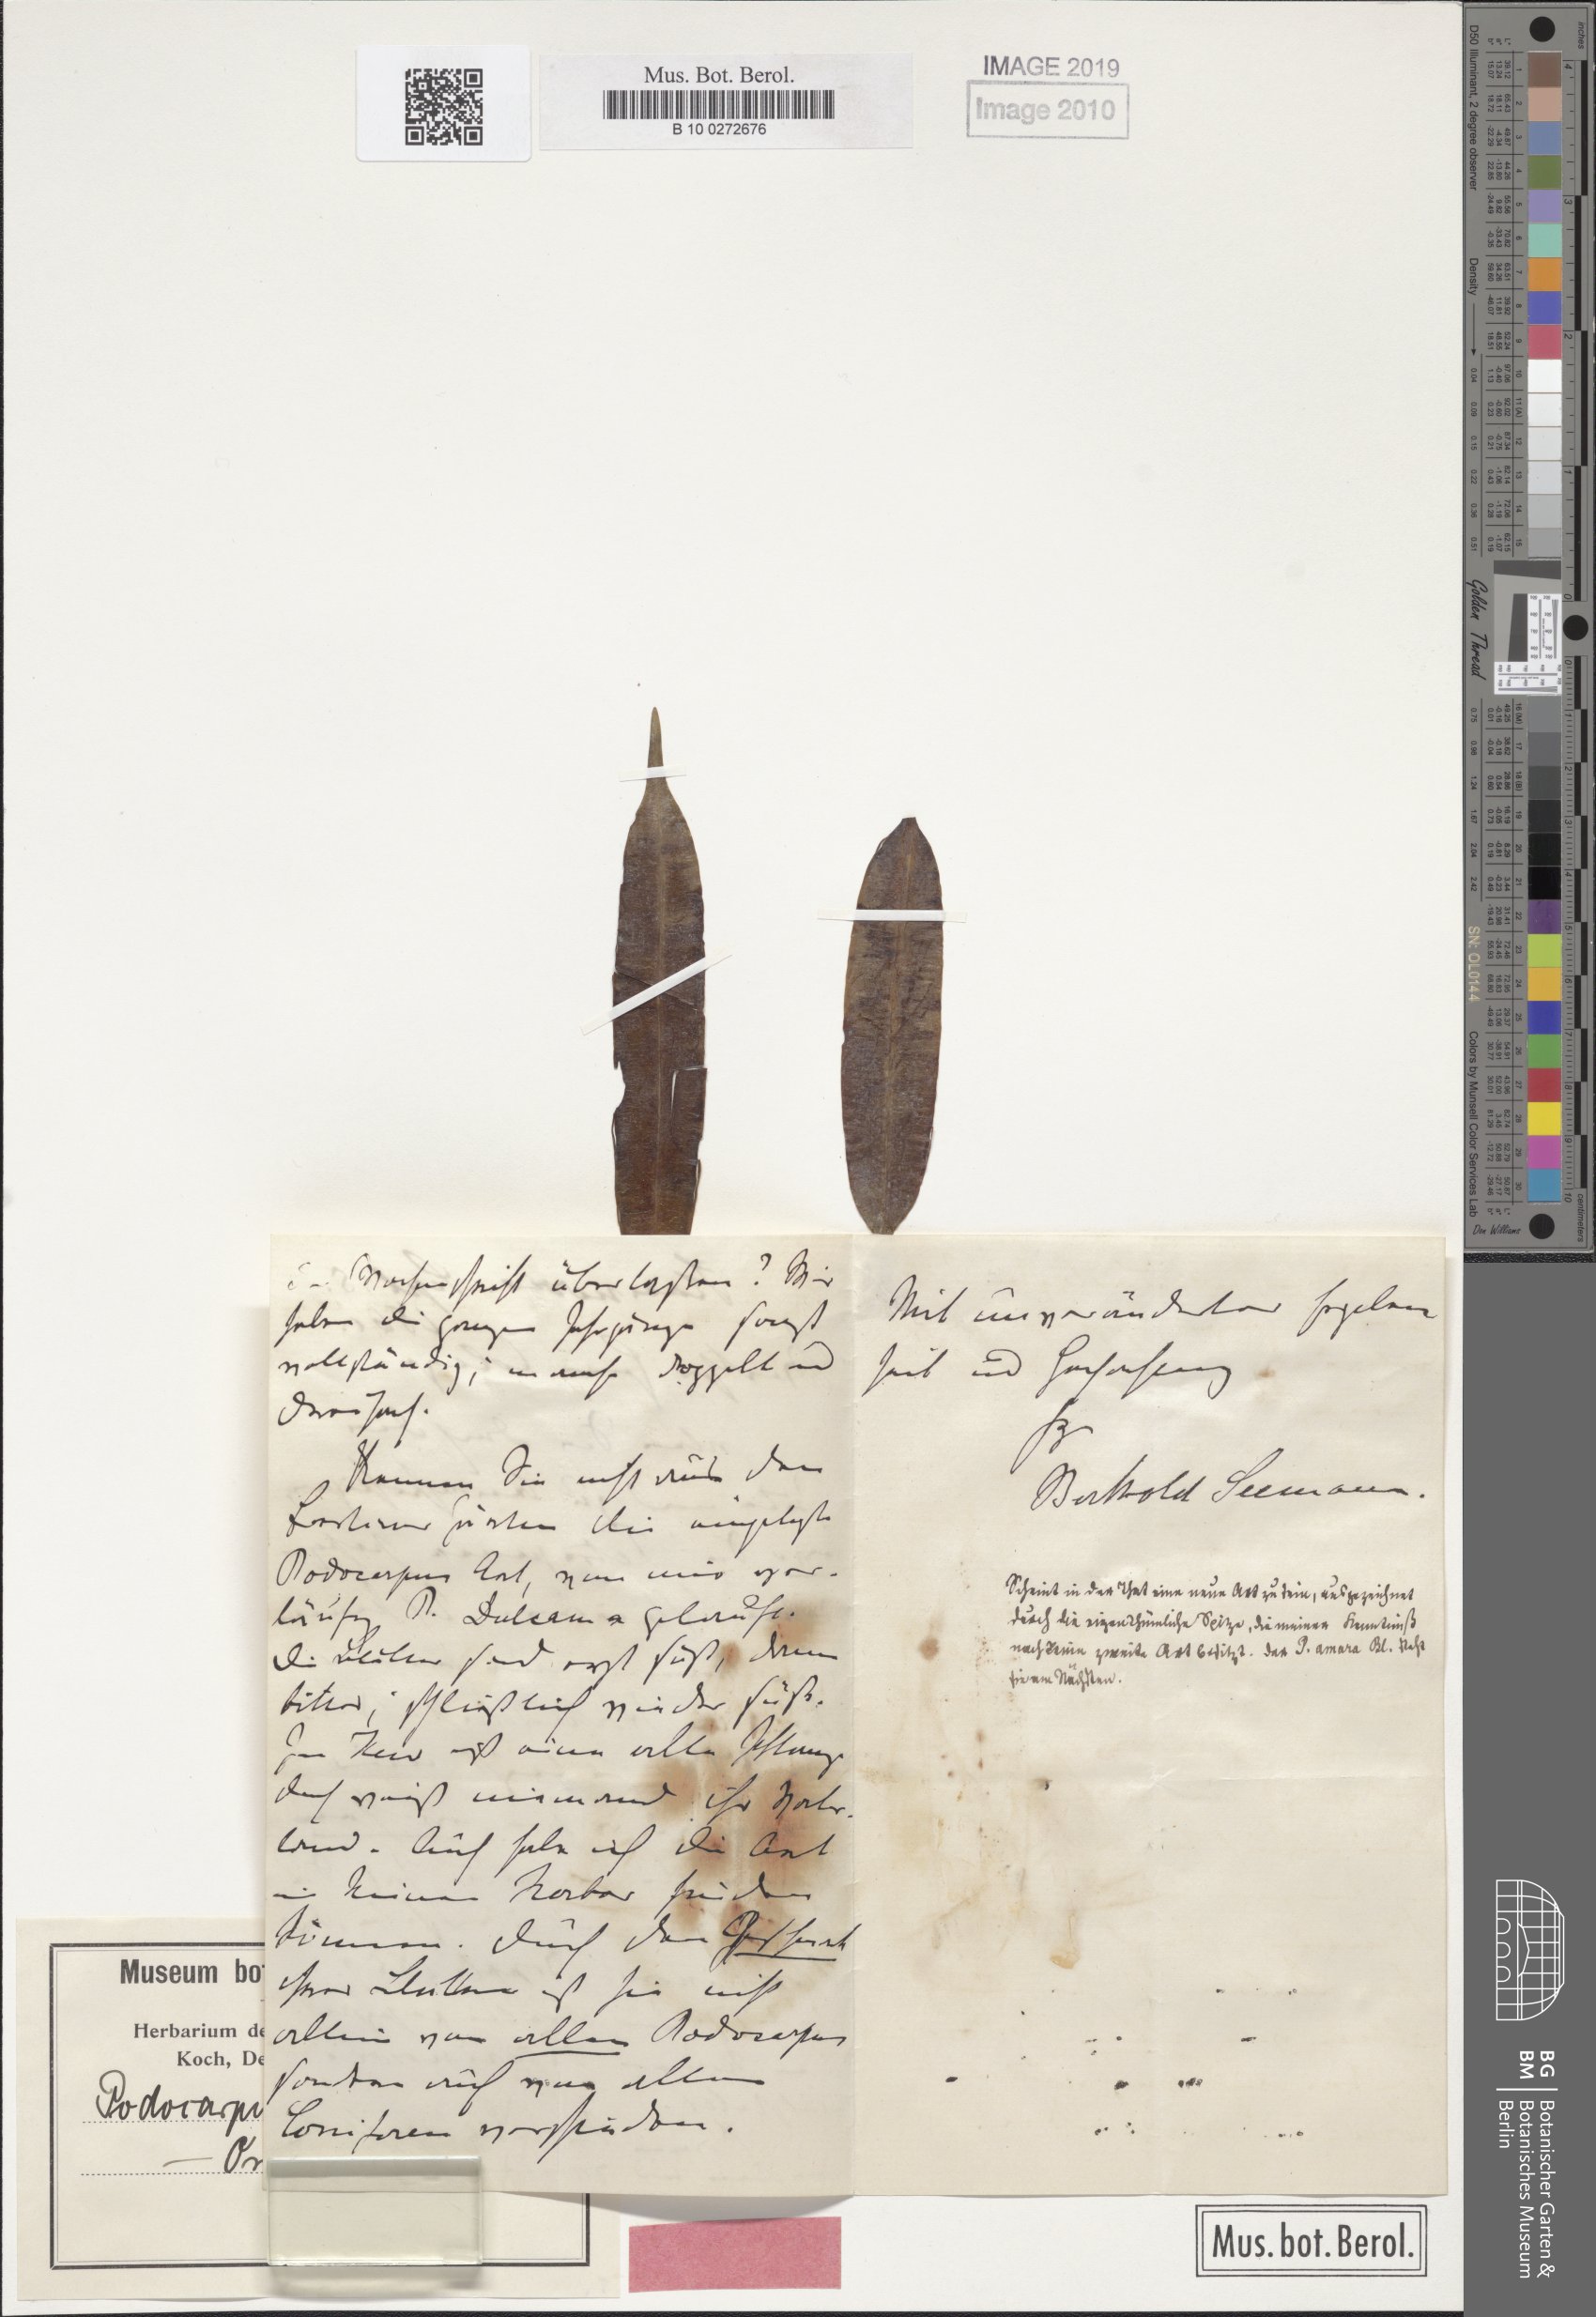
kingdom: Plantae
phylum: Tracheophyta
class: Pinopsida
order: Pinales
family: Podocarpaceae
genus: Sundacarpus
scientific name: Sundacarpus amarus
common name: Black pine
